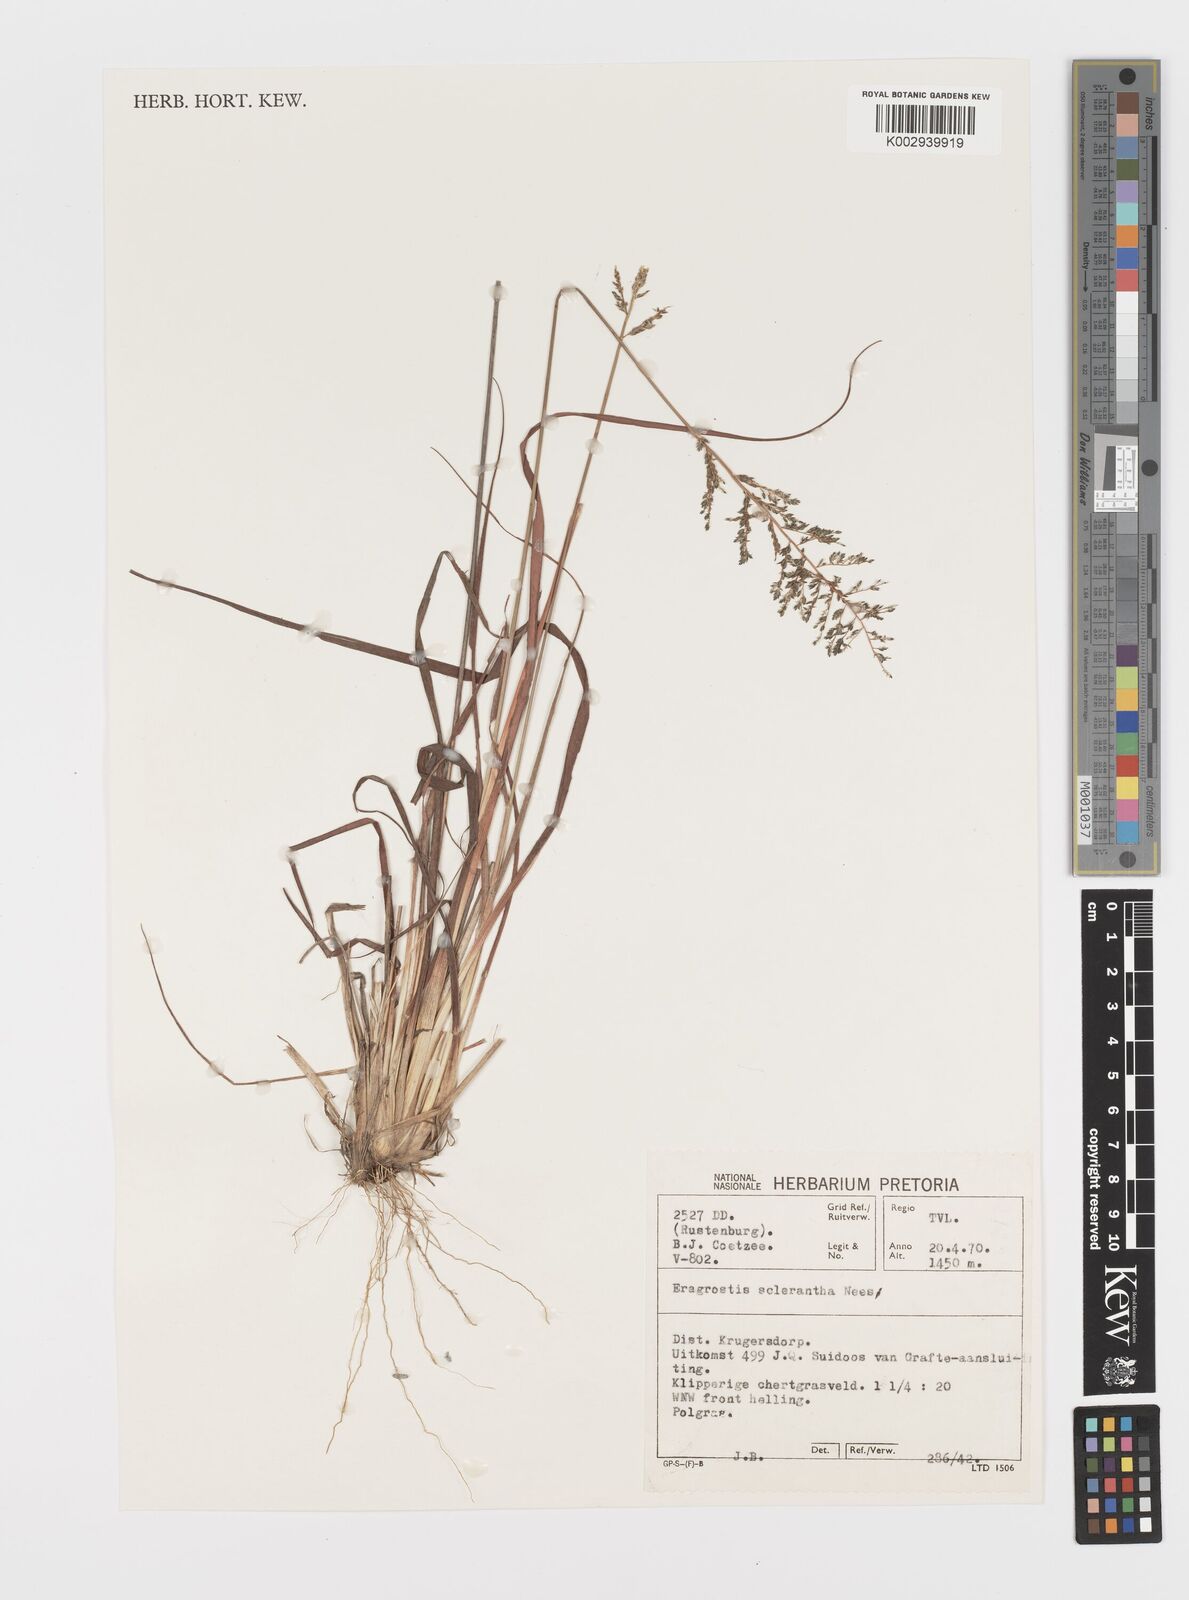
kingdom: Plantae
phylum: Tracheophyta
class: Liliopsida
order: Poales
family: Poaceae
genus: Eragrostis
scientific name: Eragrostis sclerantha
